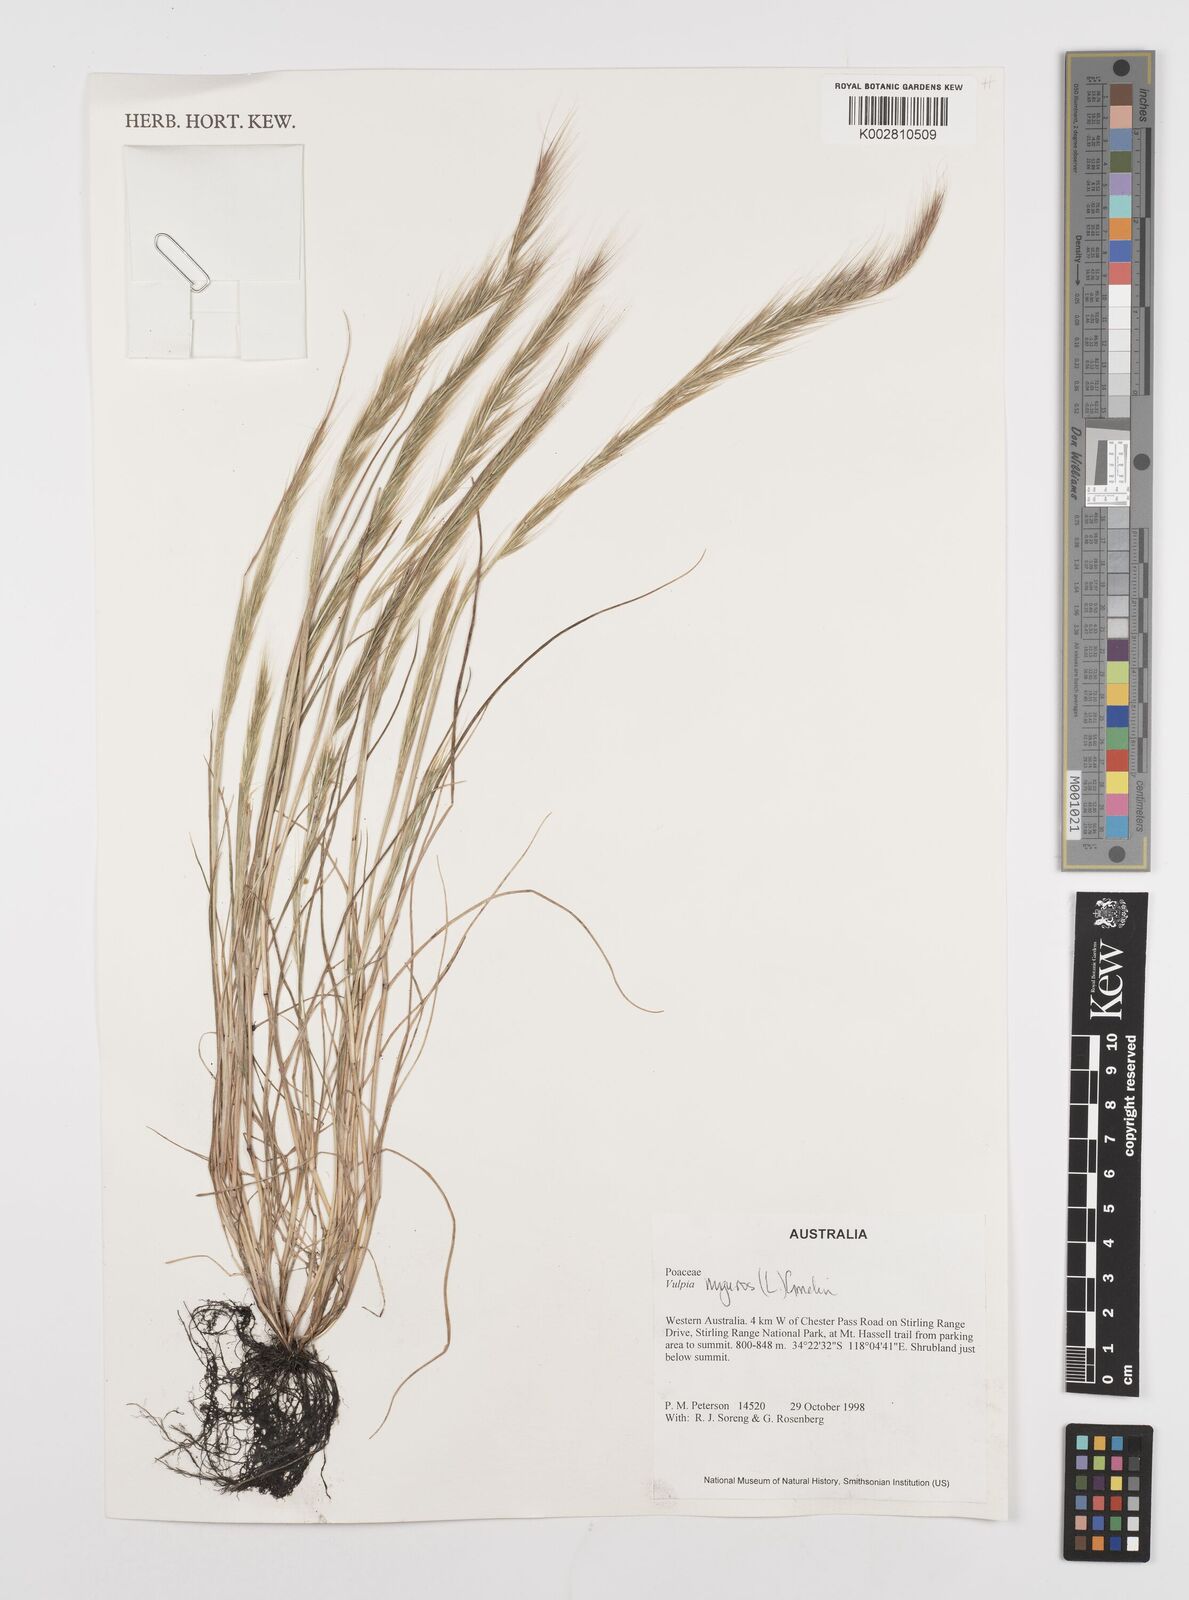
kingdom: Plantae
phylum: Tracheophyta
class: Liliopsida
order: Poales
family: Poaceae
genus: Festuca
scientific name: Festuca myuros
